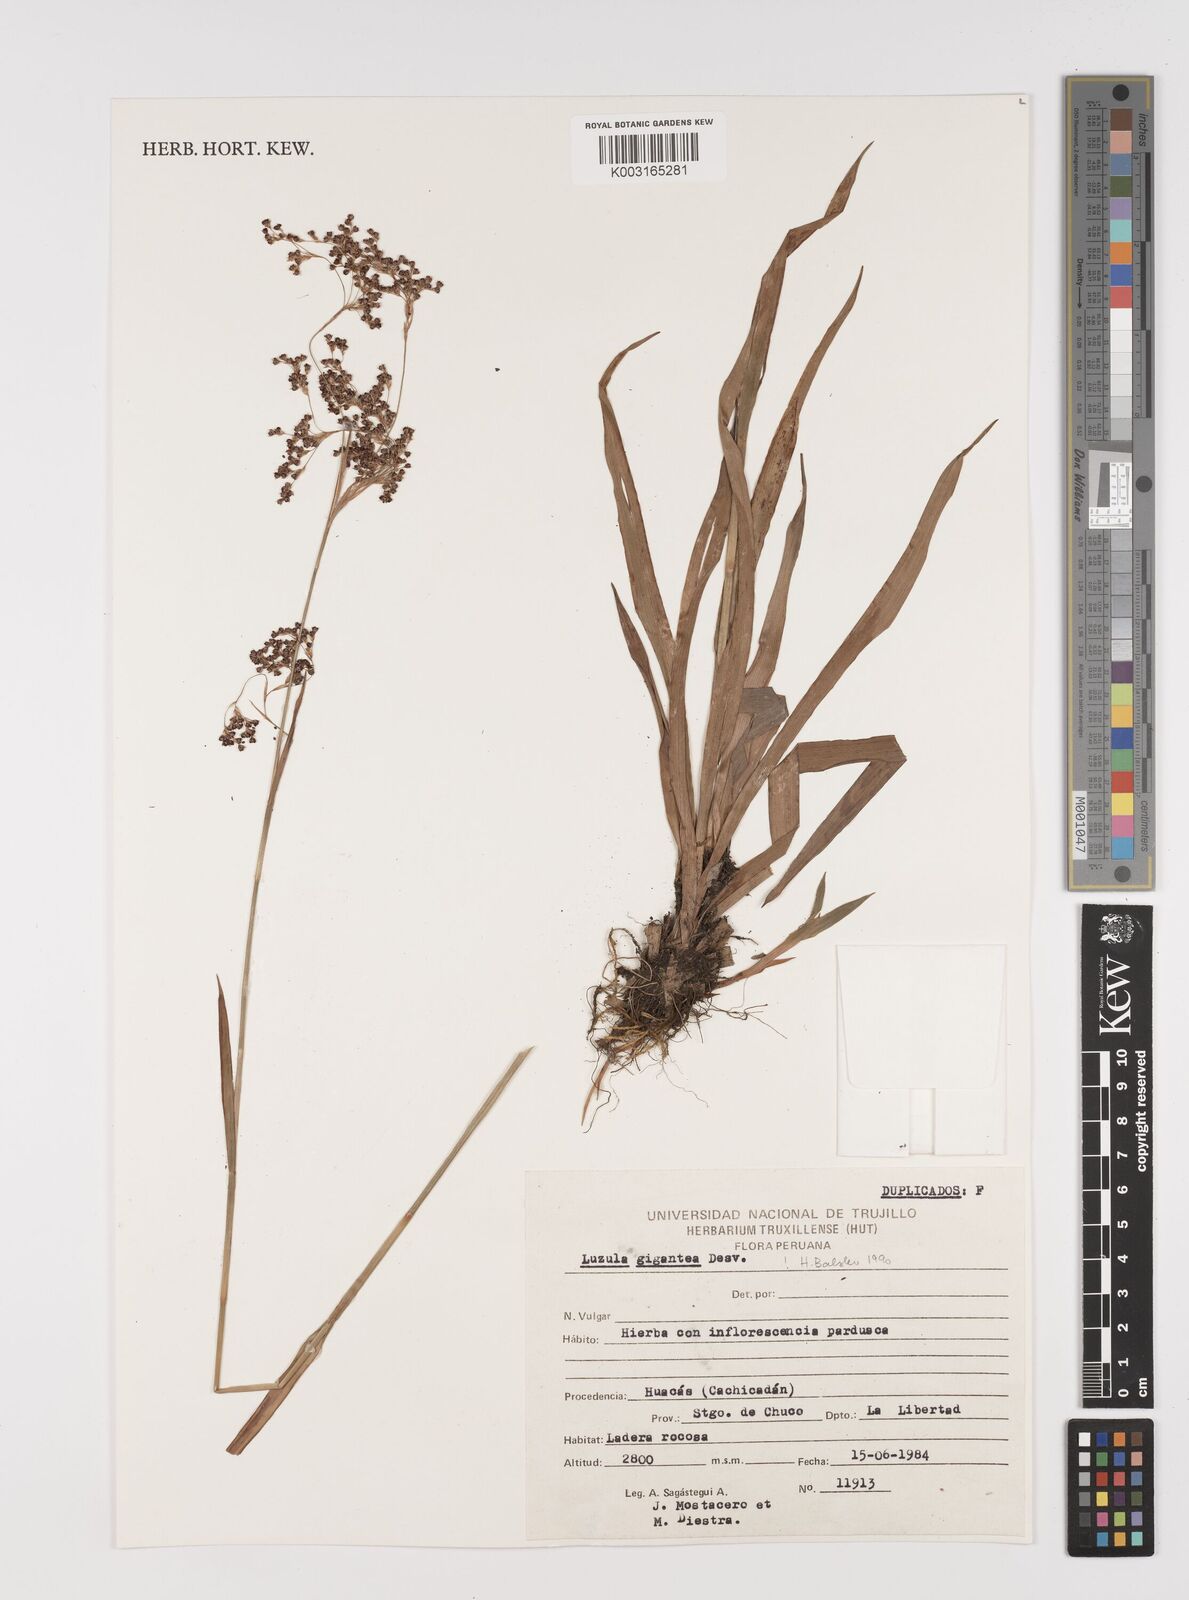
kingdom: Plantae
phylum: Tracheophyta
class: Liliopsida
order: Poales
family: Juncaceae
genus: Luzula
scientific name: Luzula gigantea
